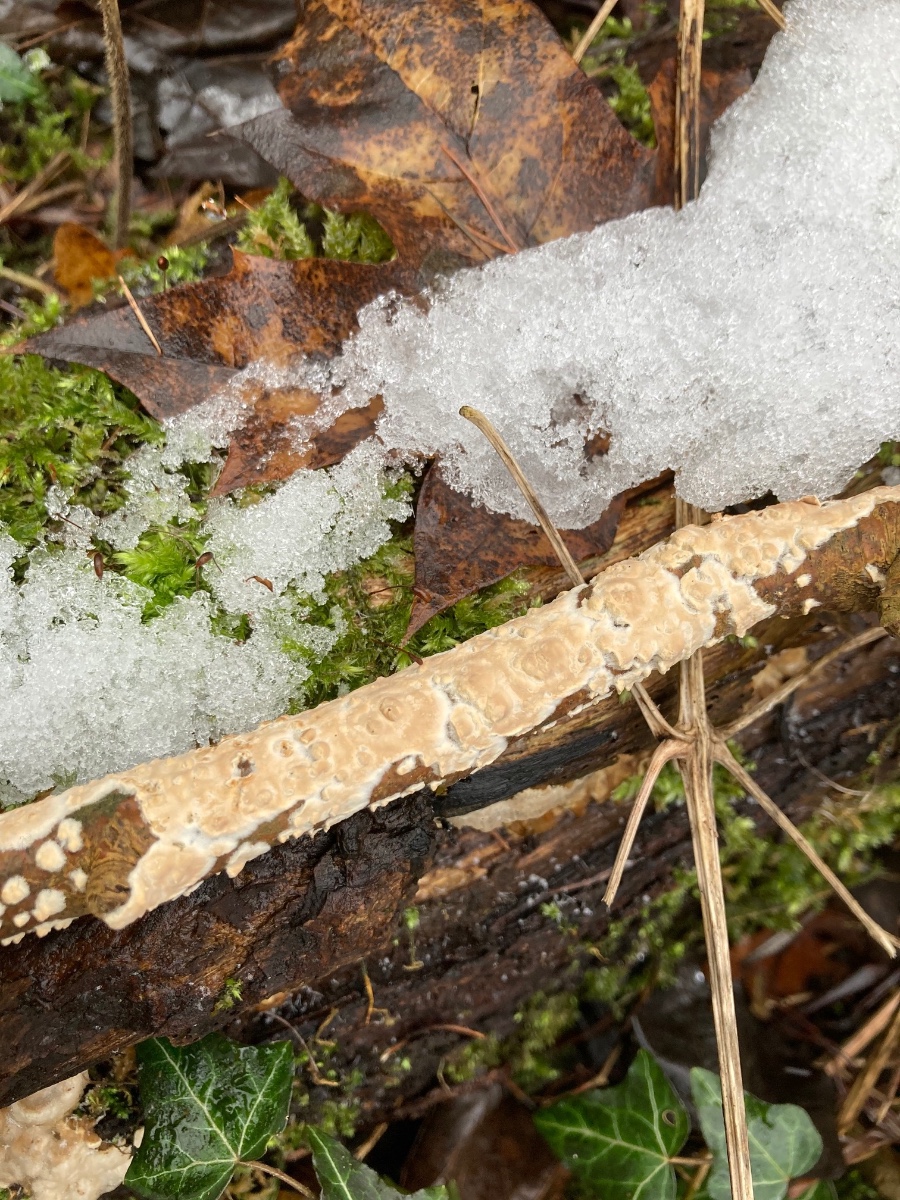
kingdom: Fungi
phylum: Basidiomycota
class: Agaricomycetes
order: Agaricales
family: Physalacriaceae
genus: Cylindrobasidium
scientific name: Cylindrobasidium evolvens
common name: sprækkehinde
